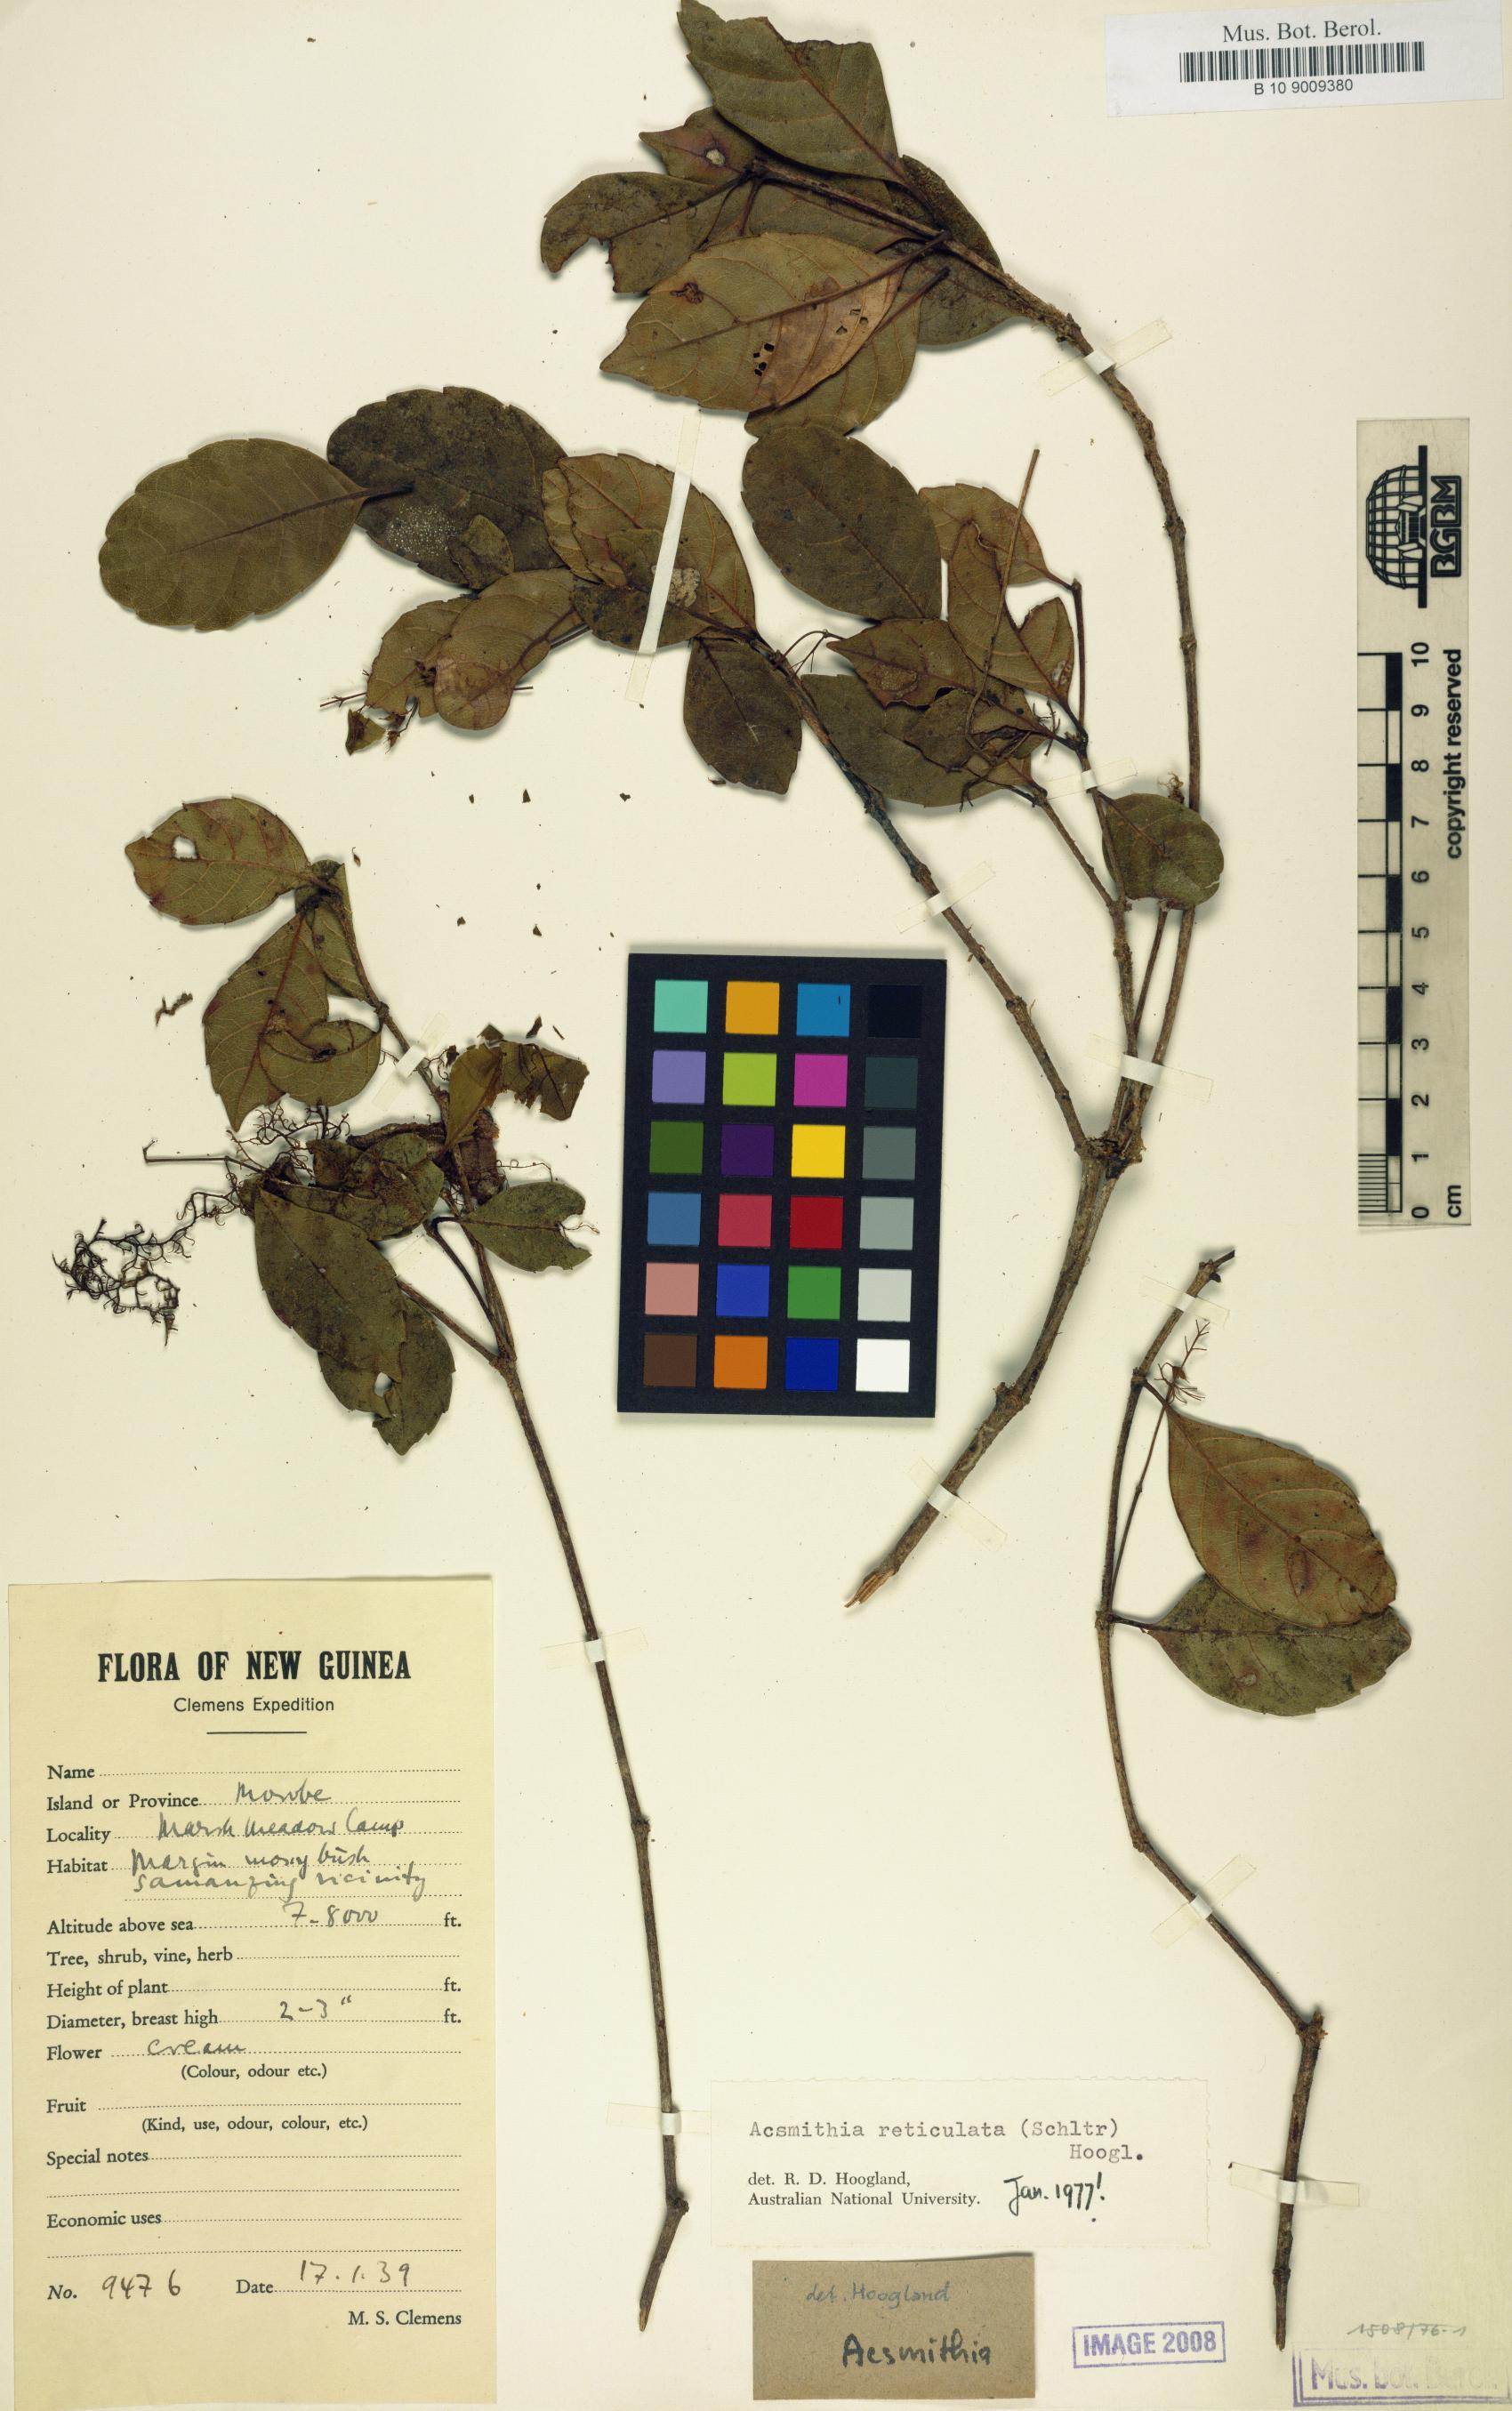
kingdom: Plantae
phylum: Tracheophyta
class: Magnoliopsida
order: Oxalidales
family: Cunoniaceae
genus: Spiraeanthemum
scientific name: Spiraeanthemum reticulatum
